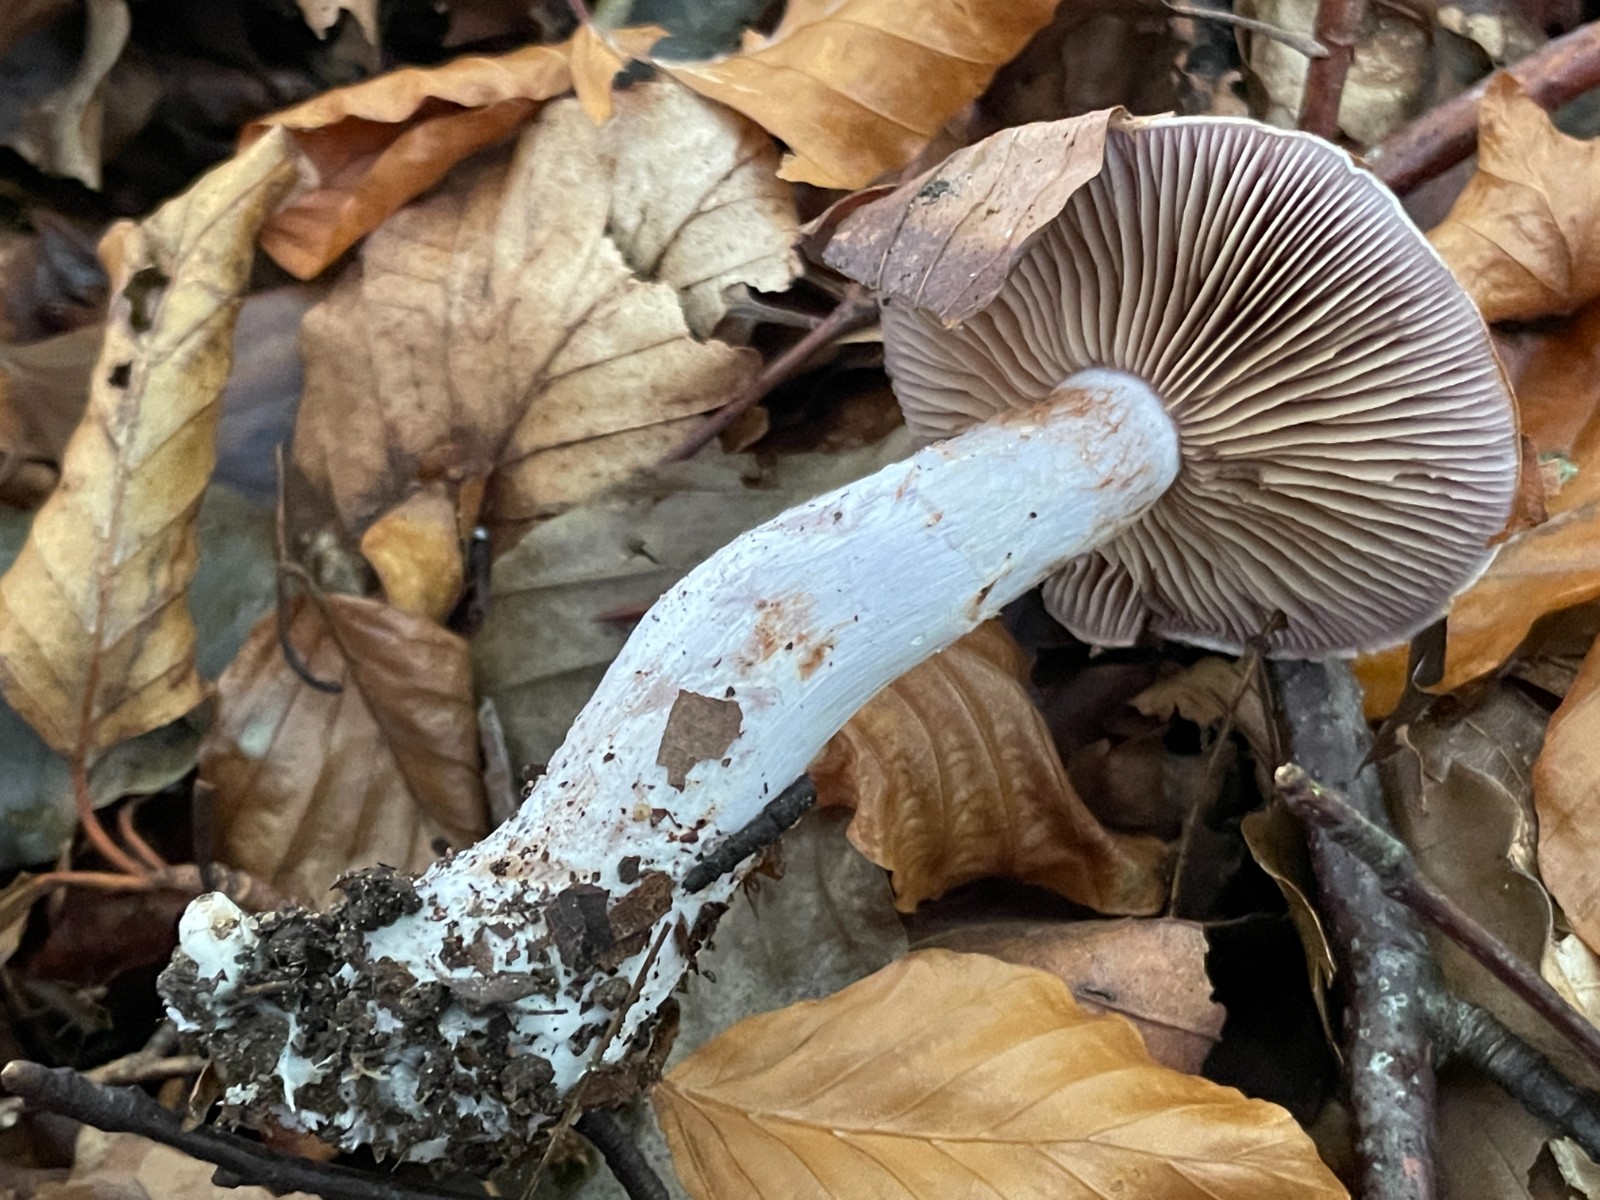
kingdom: Fungi
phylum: Basidiomycota
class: Agaricomycetes
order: Agaricales
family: Cortinariaceae
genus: Cortinarius
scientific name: Cortinarius largus
